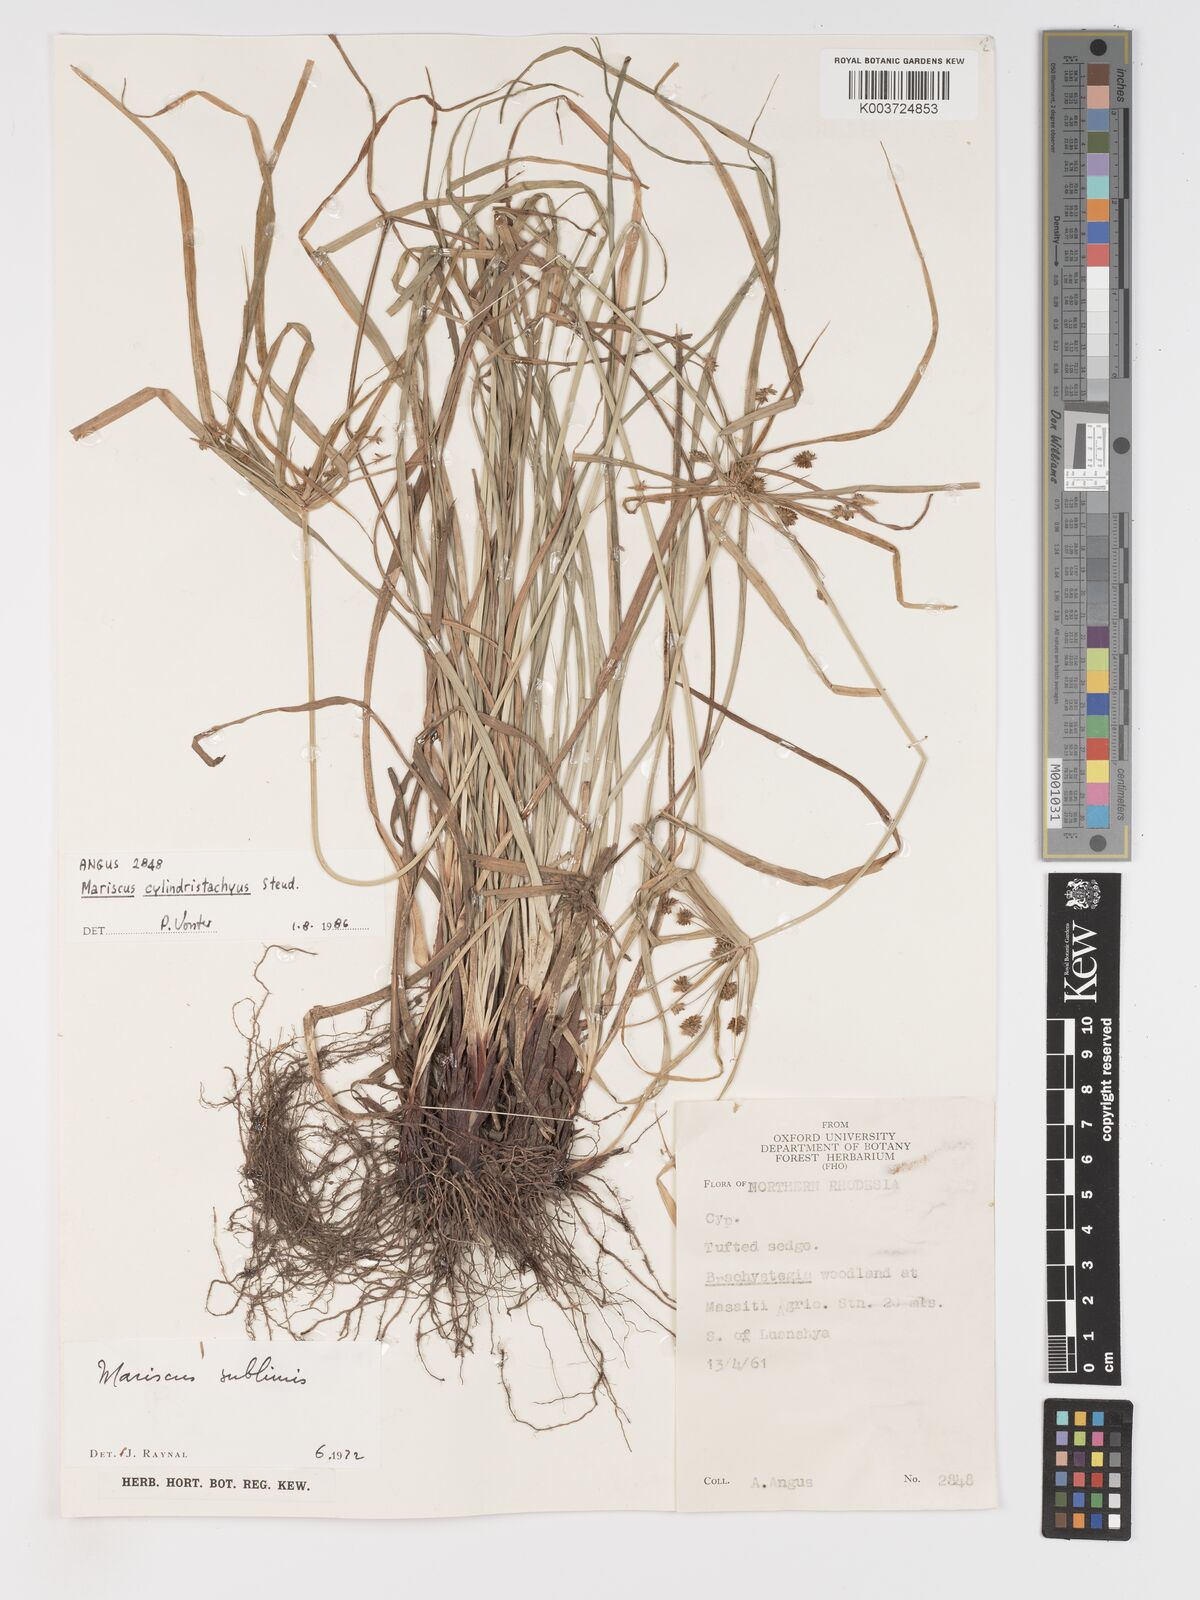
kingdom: Plantae
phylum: Tracheophyta
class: Liliopsida
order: Poales
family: Cyperaceae
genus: Cyperus
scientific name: Cyperus cyperoides
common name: Pacific island flat sedge
